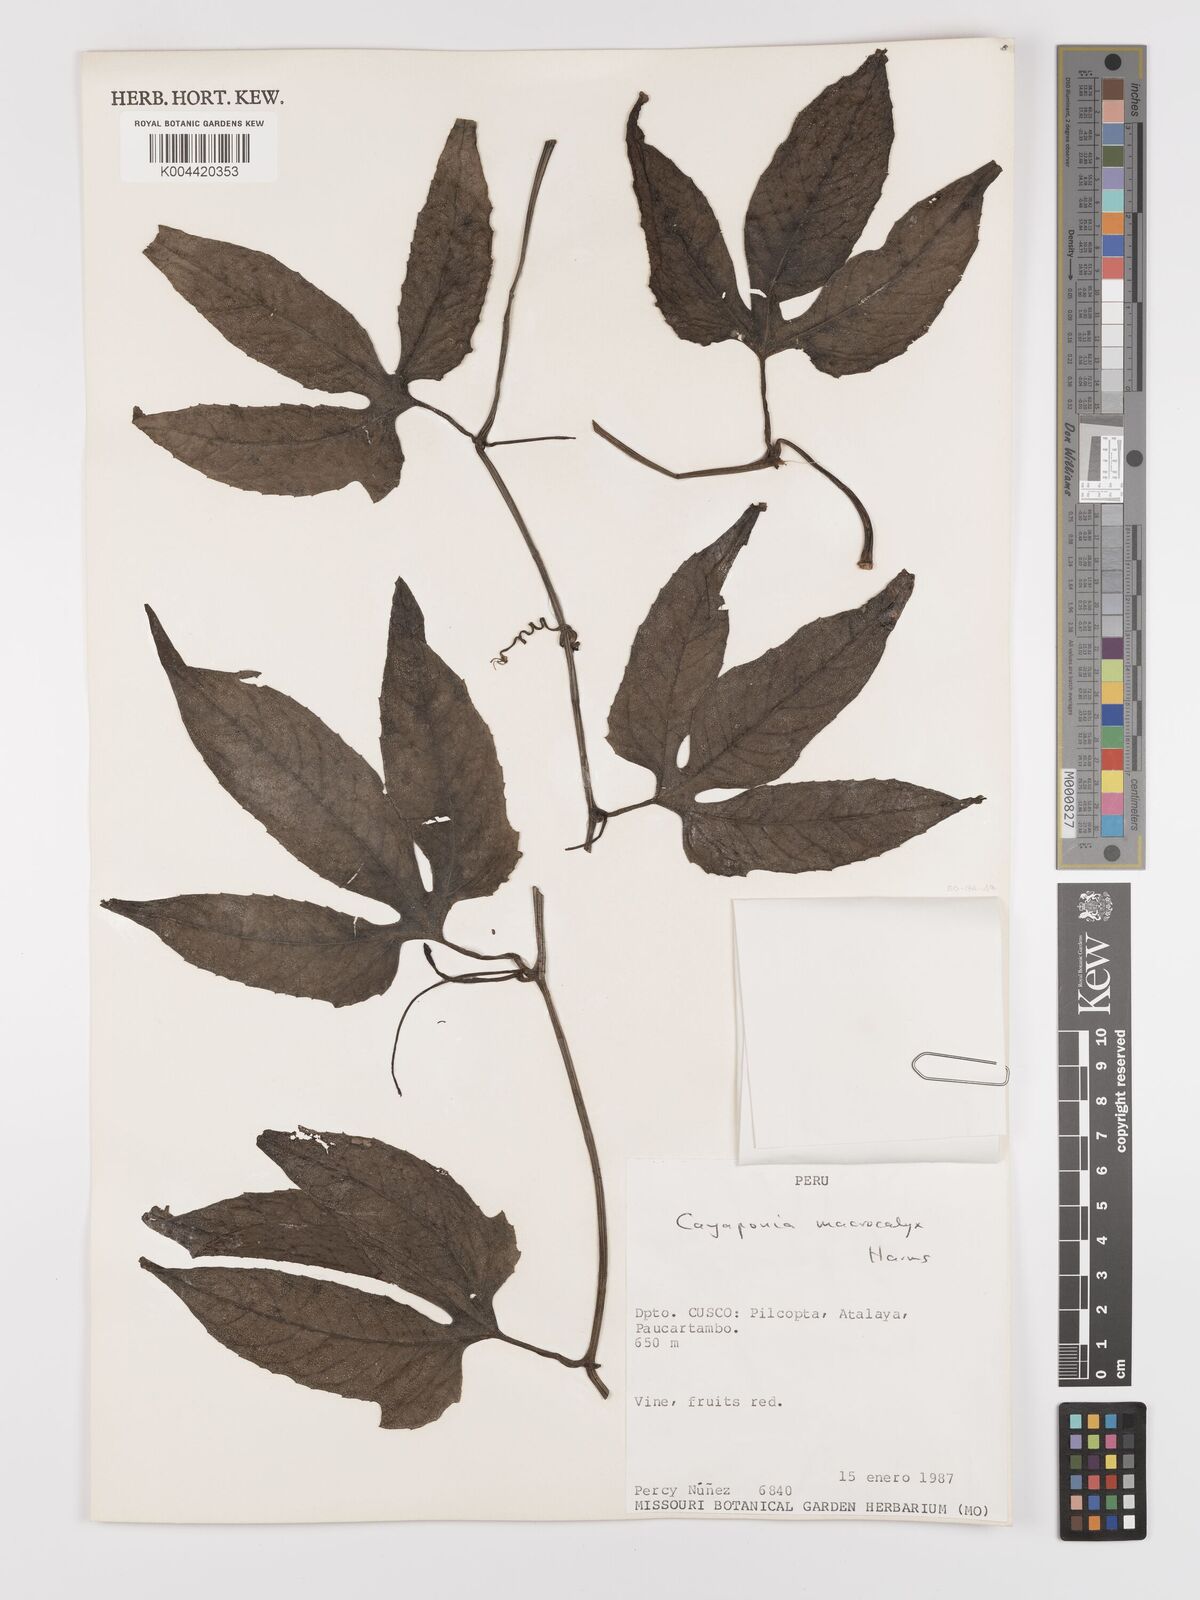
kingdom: Plantae
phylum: Tracheophyta
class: Magnoliopsida
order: Cucurbitales
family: Cucurbitaceae
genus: Cayaponia
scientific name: Cayaponia macrocalyx
